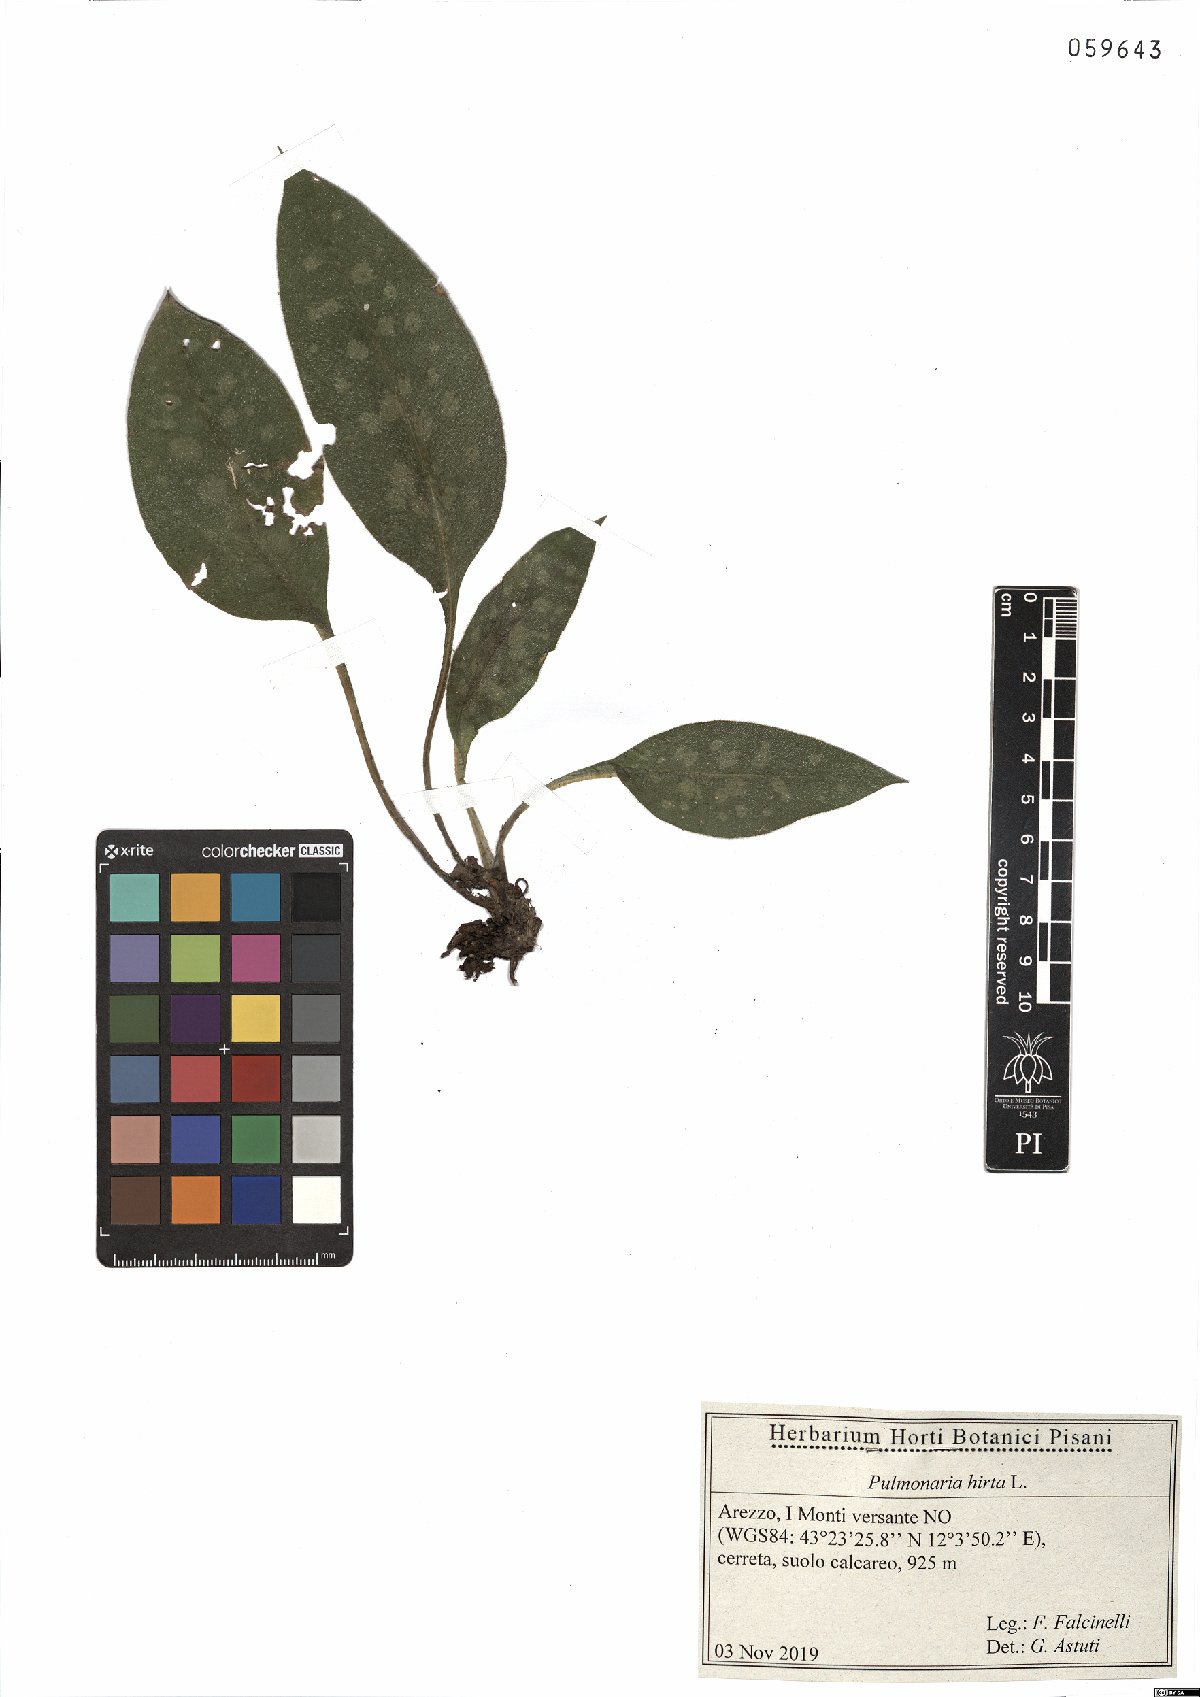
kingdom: Plantae
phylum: Tracheophyta
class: Magnoliopsida
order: Boraginales
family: Boraginaceae
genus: Pulmonaria
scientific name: Pulmonaria hirta
